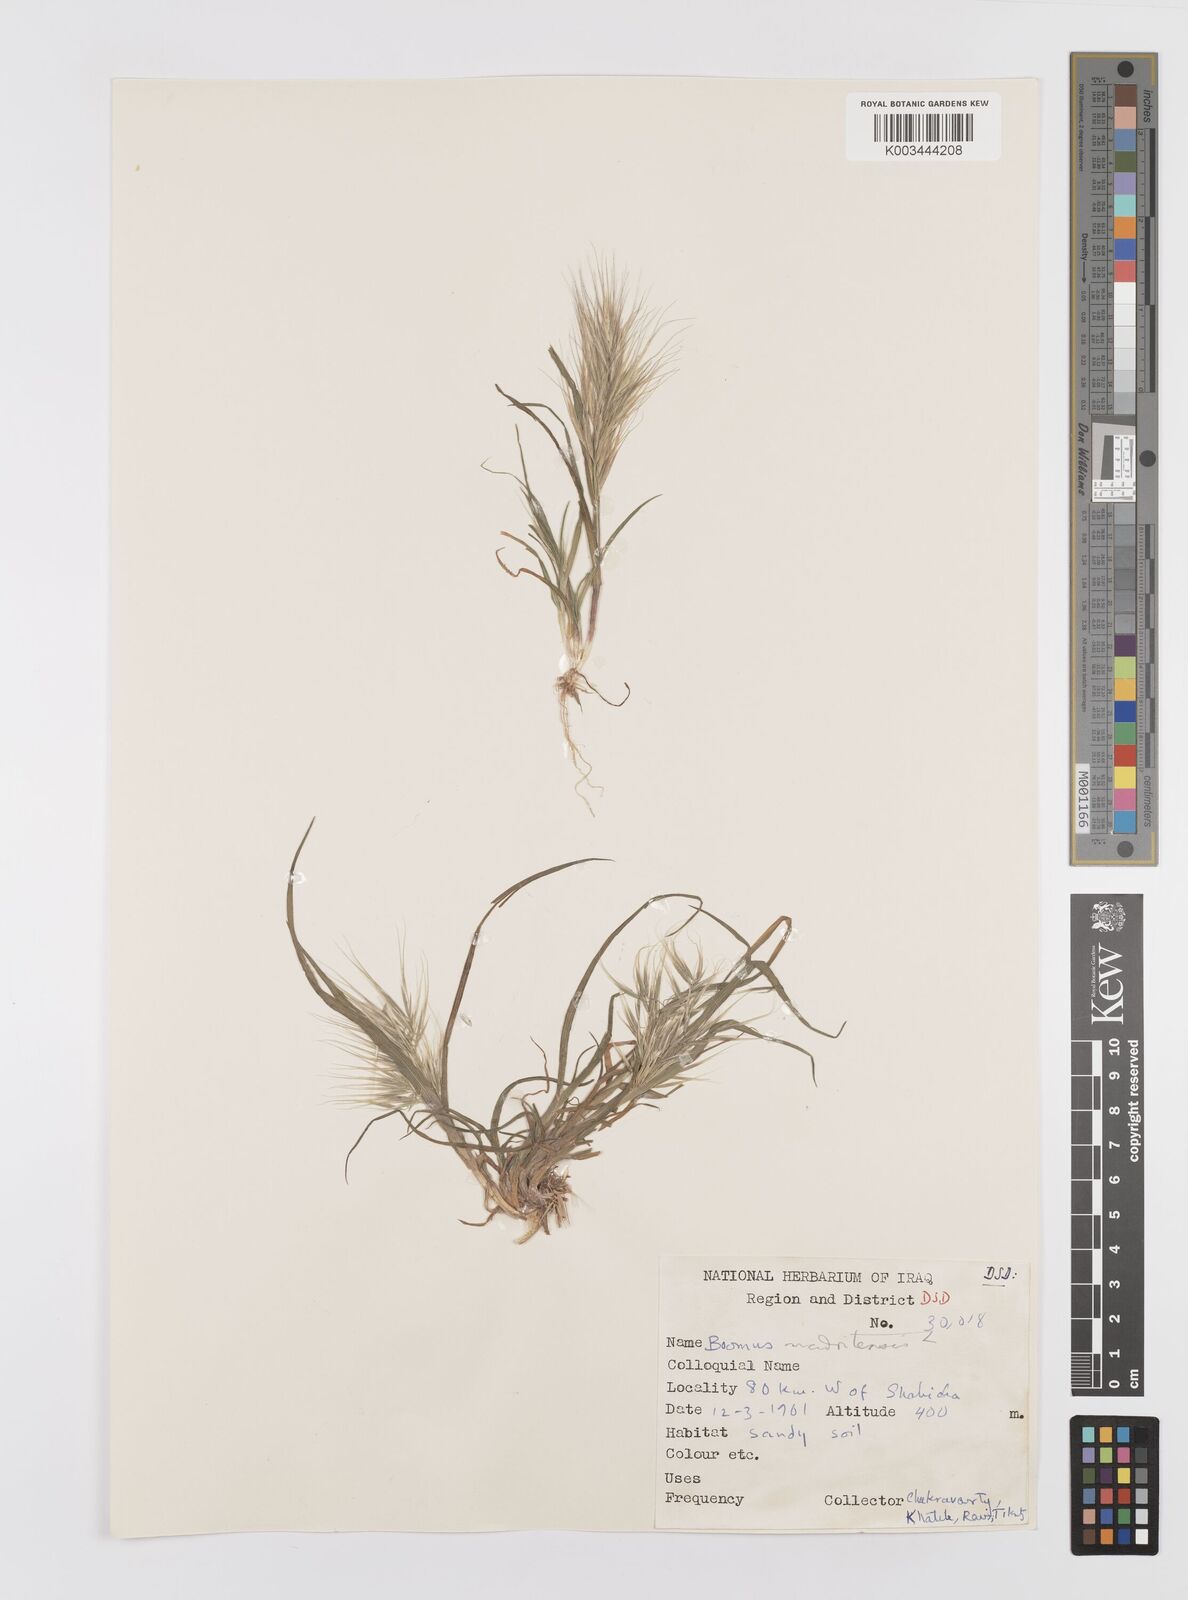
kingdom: Plantae
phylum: Tracheophyta
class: Liliopsida
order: Poales
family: Poaceae
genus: Bromus
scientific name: Bromus madritensis
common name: Compact brome
